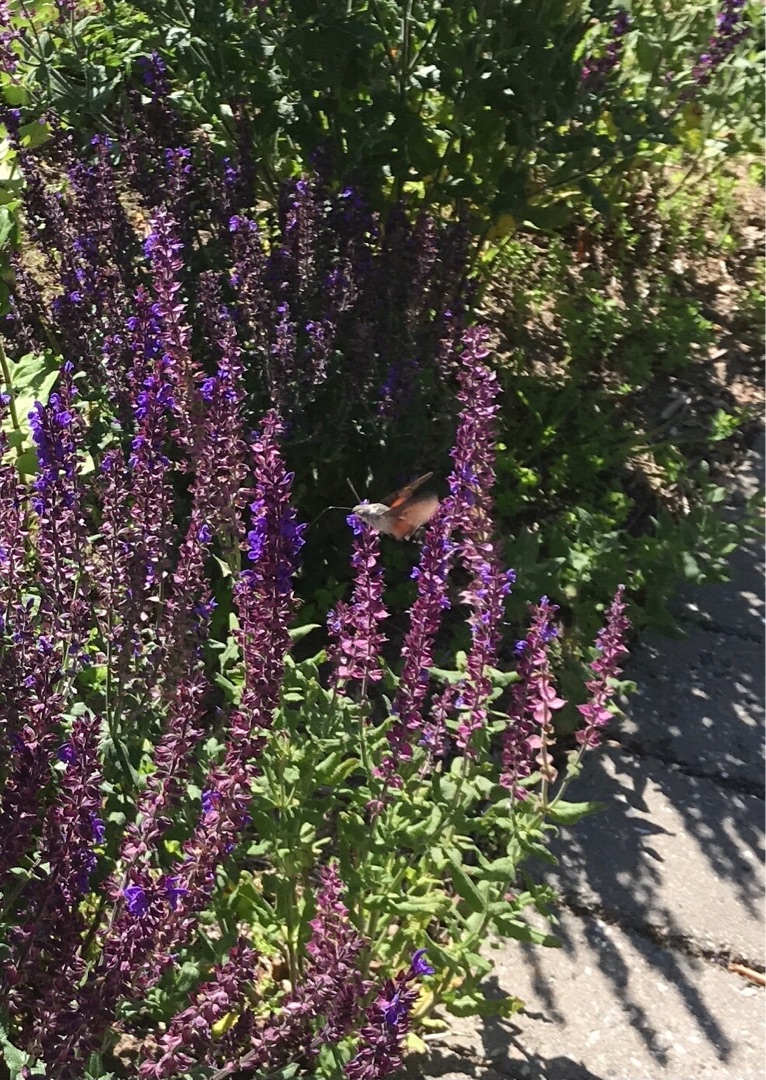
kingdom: Animalia
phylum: Arthropoda
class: Insecta
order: Lepidoptera
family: Sphingidae
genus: Macroglossum
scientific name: Macroglossum stellatarum
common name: Duehale
